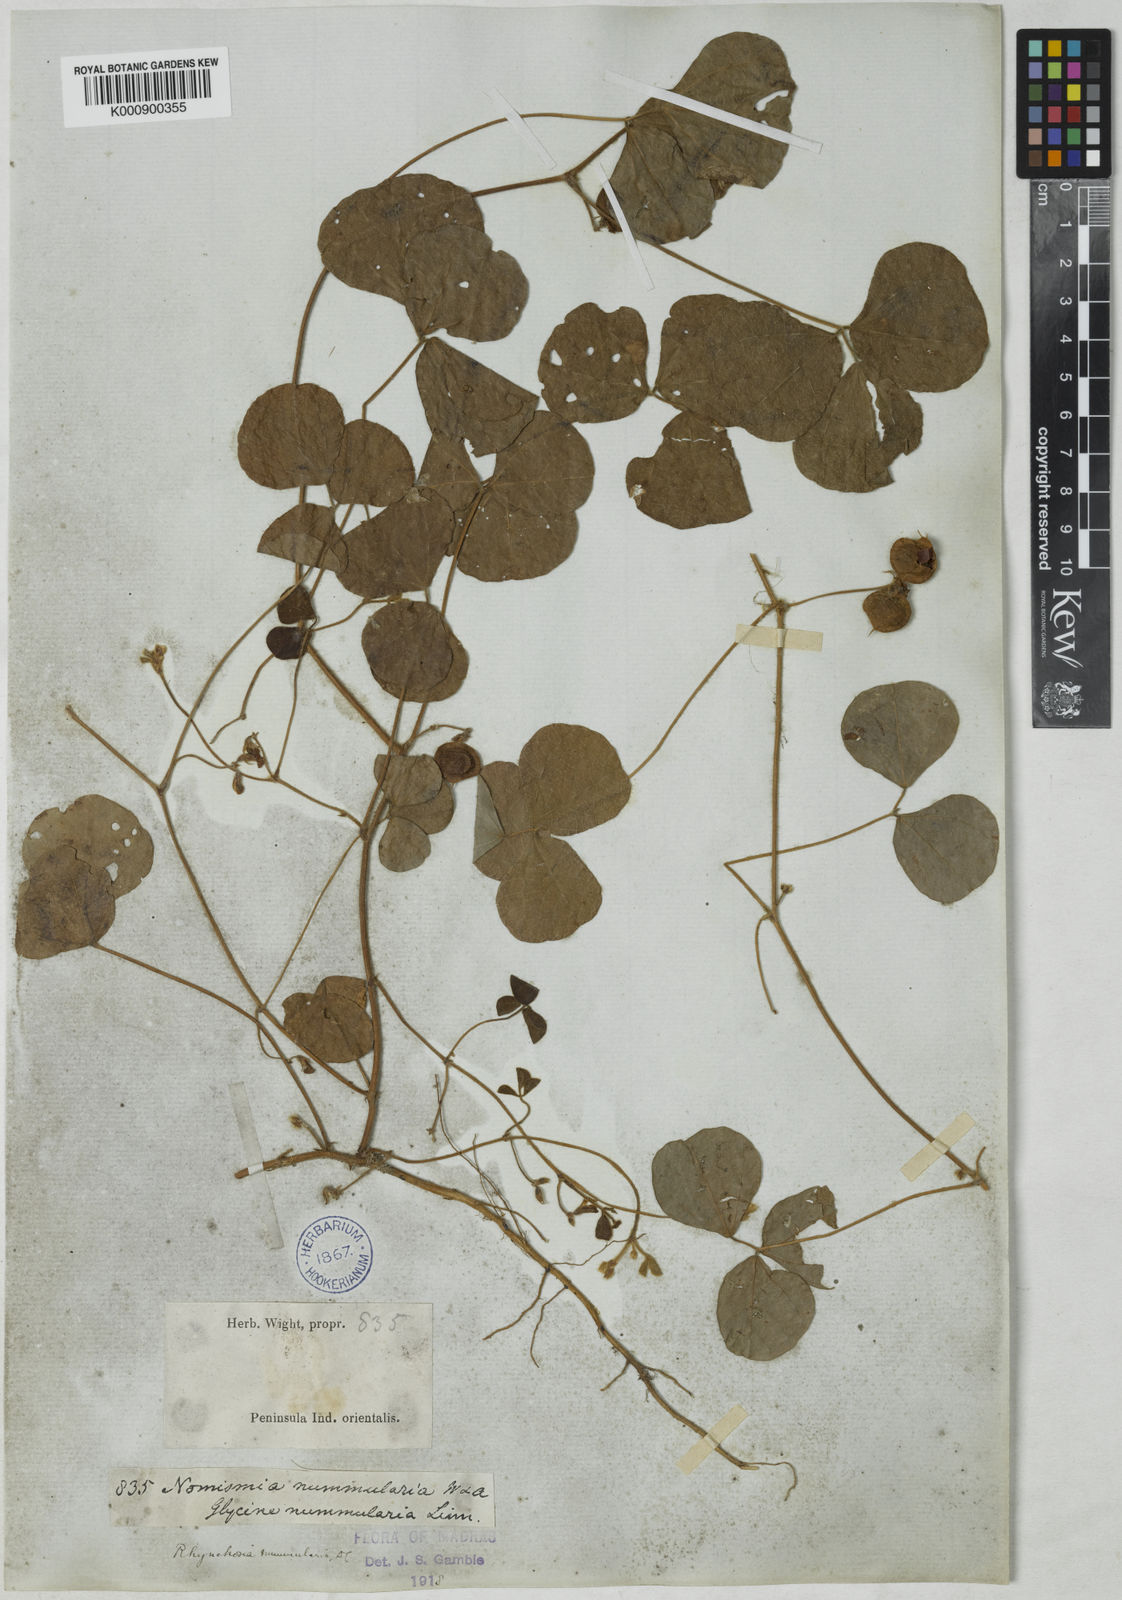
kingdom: Plantae
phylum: Tracheophyta
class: Magnoliopsida
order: Fabales
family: Fabaceae
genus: Rhynchosia
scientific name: Rhynchosia nummularia
